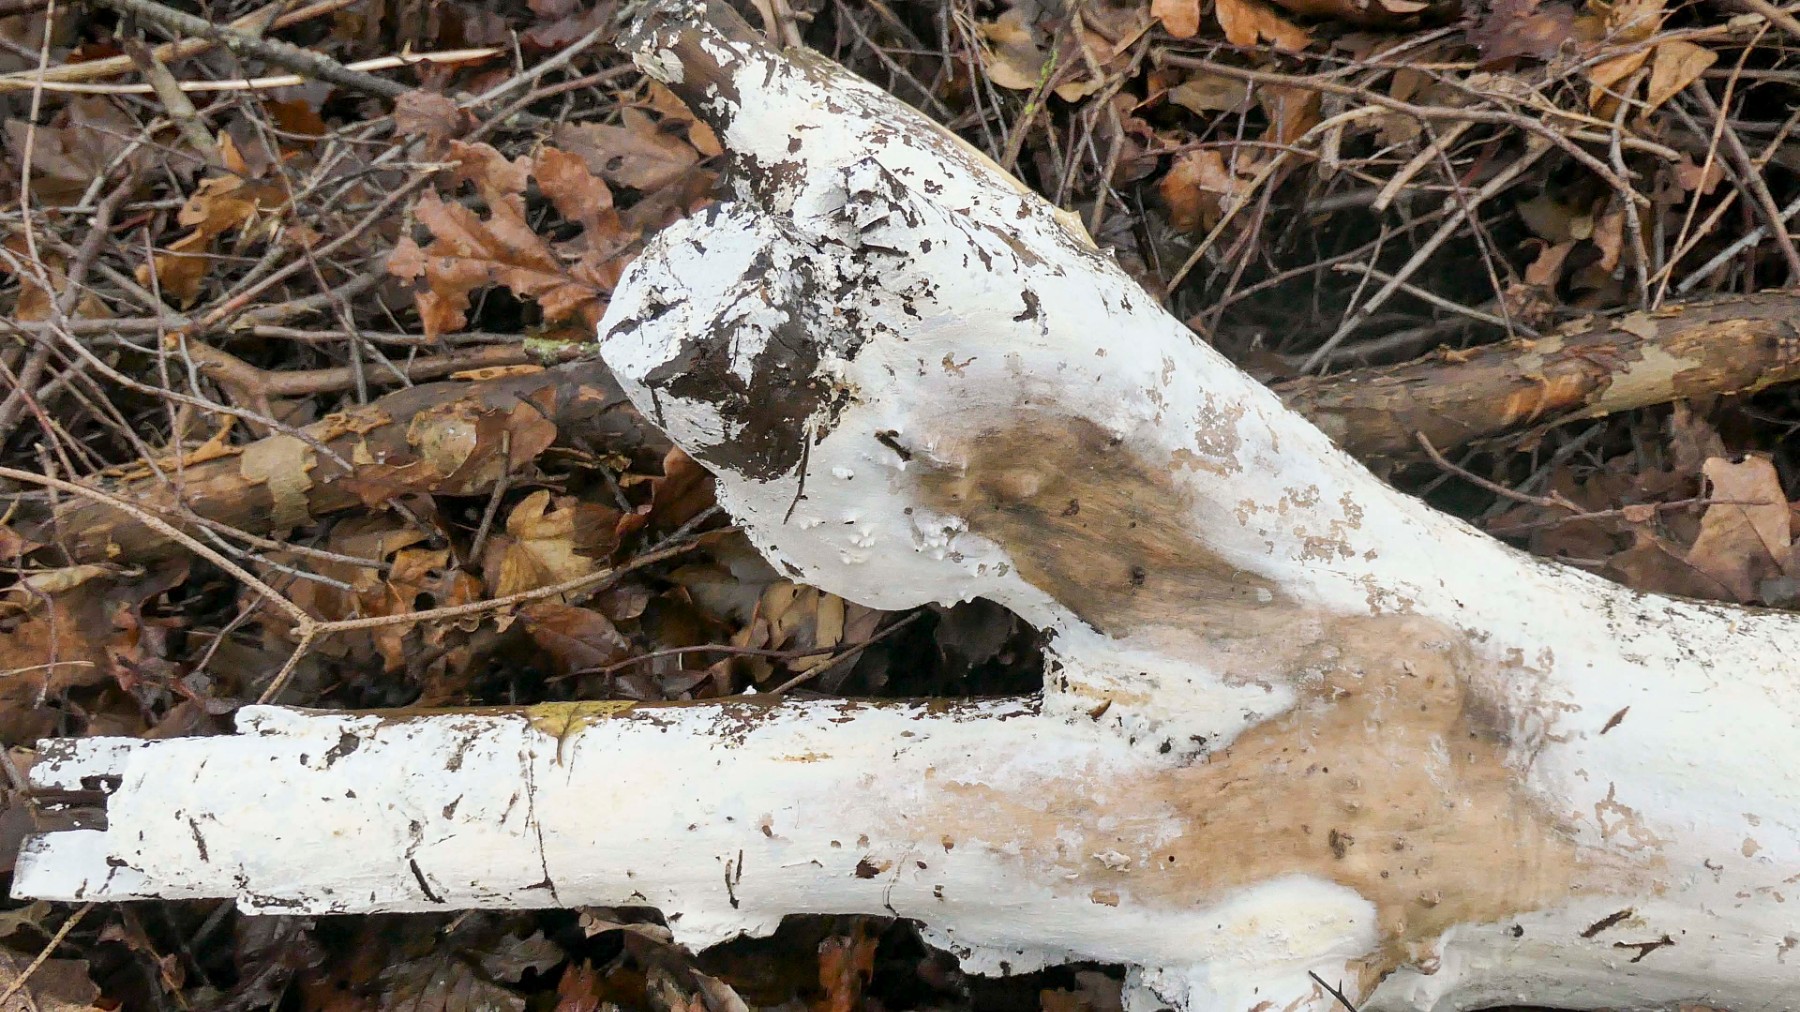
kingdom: Fungi
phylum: Basidiomycota
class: Agaricomycetes
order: Corticiales
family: Corticiaceae
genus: Lyomyces
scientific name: Lyomyces sambuci
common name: almindelig hyldehinde
